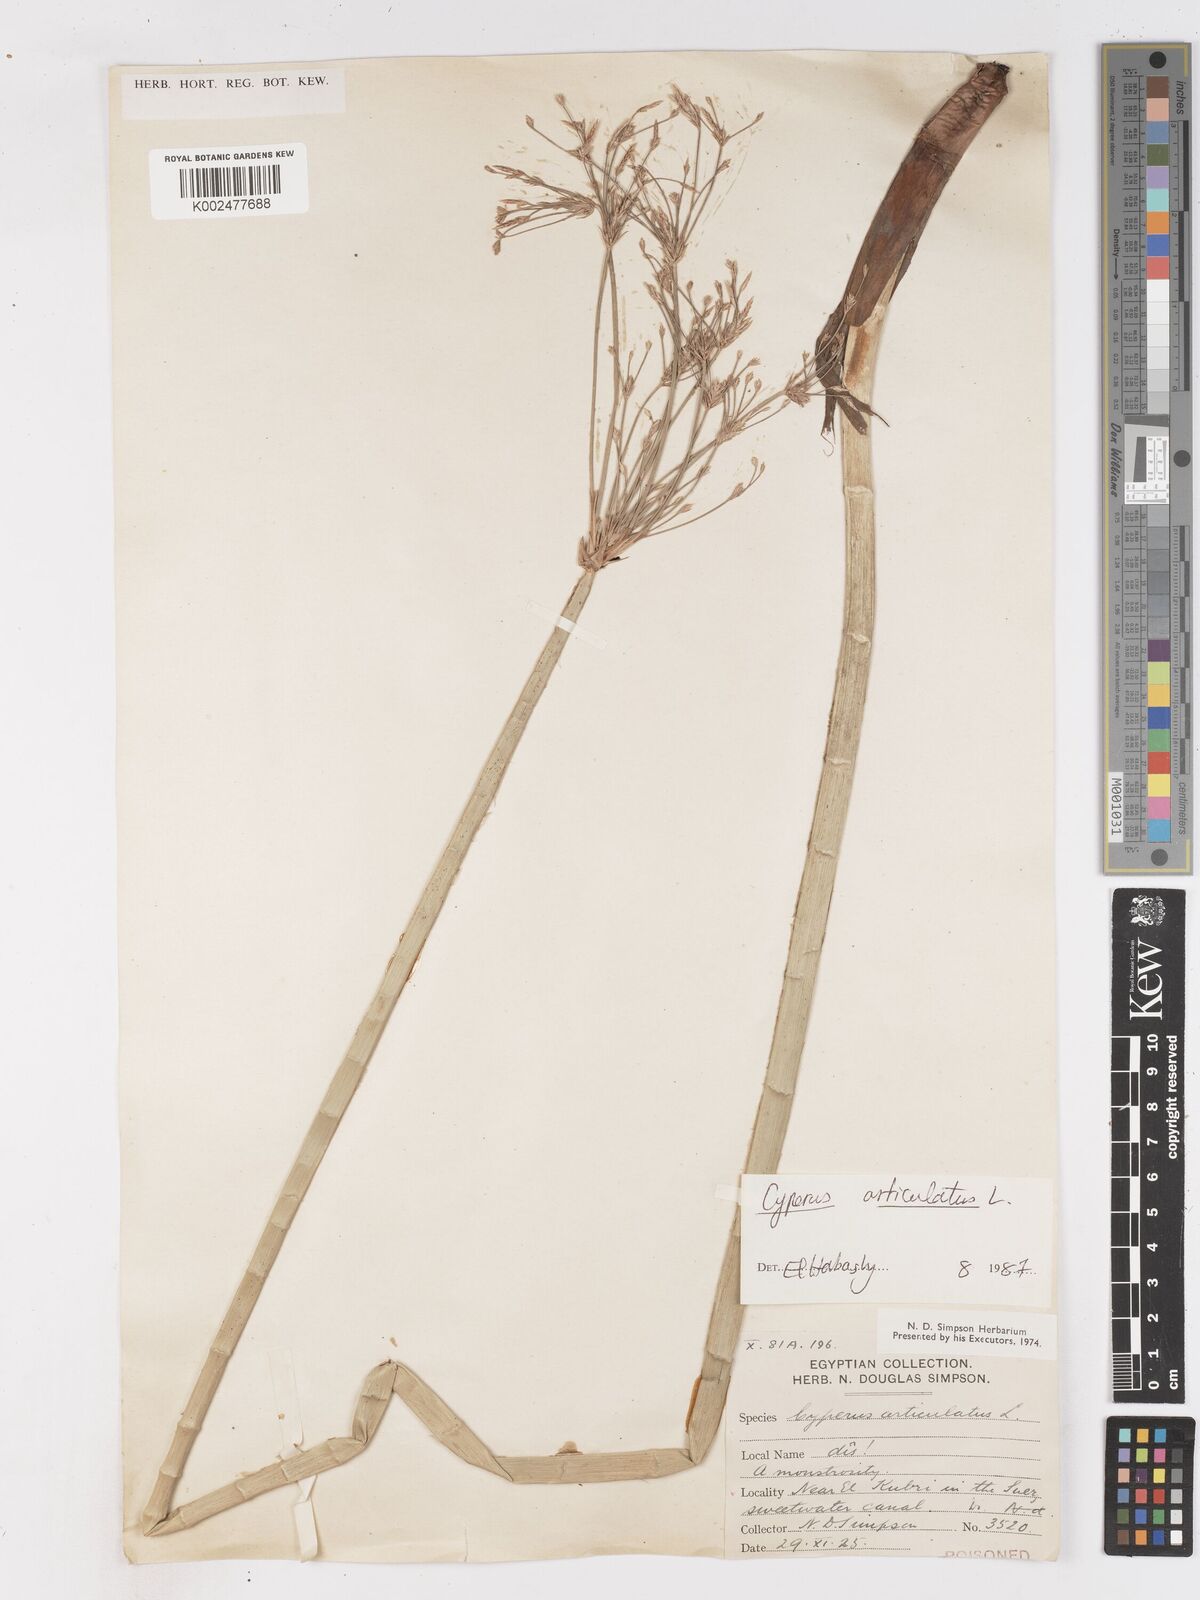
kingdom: Plantae
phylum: Tracheophyta
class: Liliopsida
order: Poales
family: Cyperaceae
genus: Cyperus
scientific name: Cyperus articulatus
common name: Jointed flatsedge
